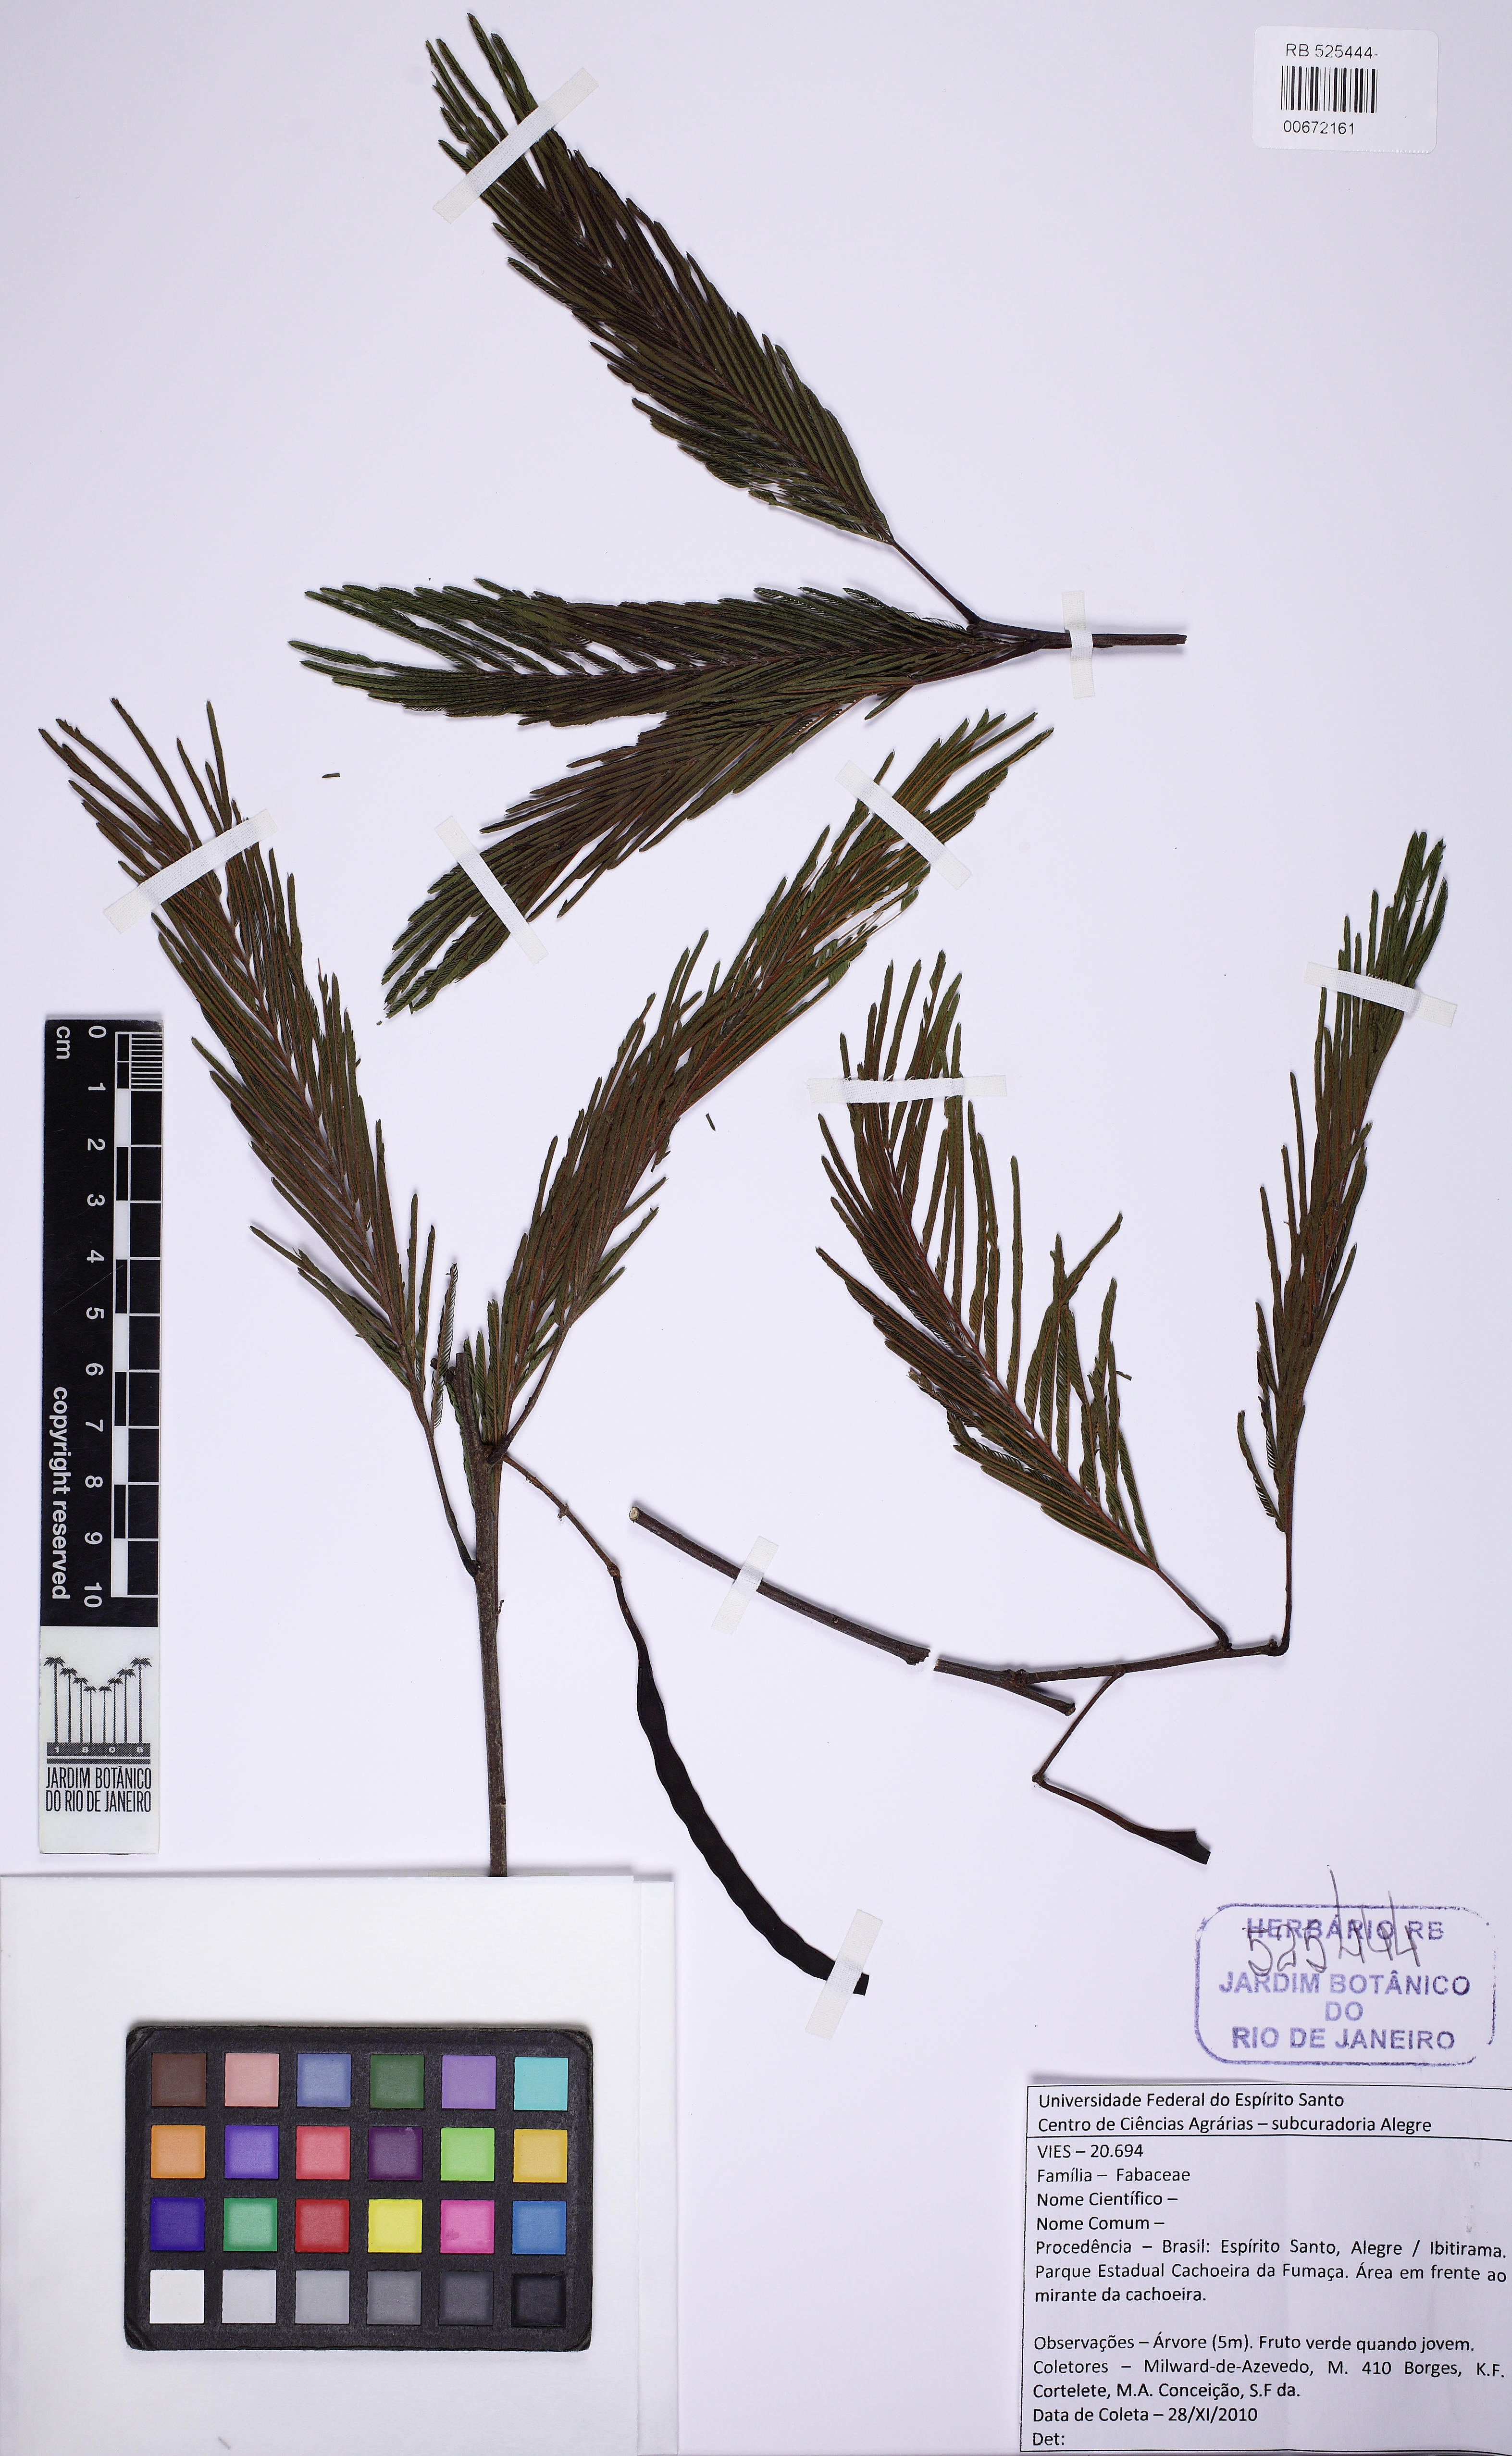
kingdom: Plantae
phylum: Tracheophyta
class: Magnoliopsida
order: Fabales
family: Fabaceae
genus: Anadenanthera
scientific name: Anadenanthera
